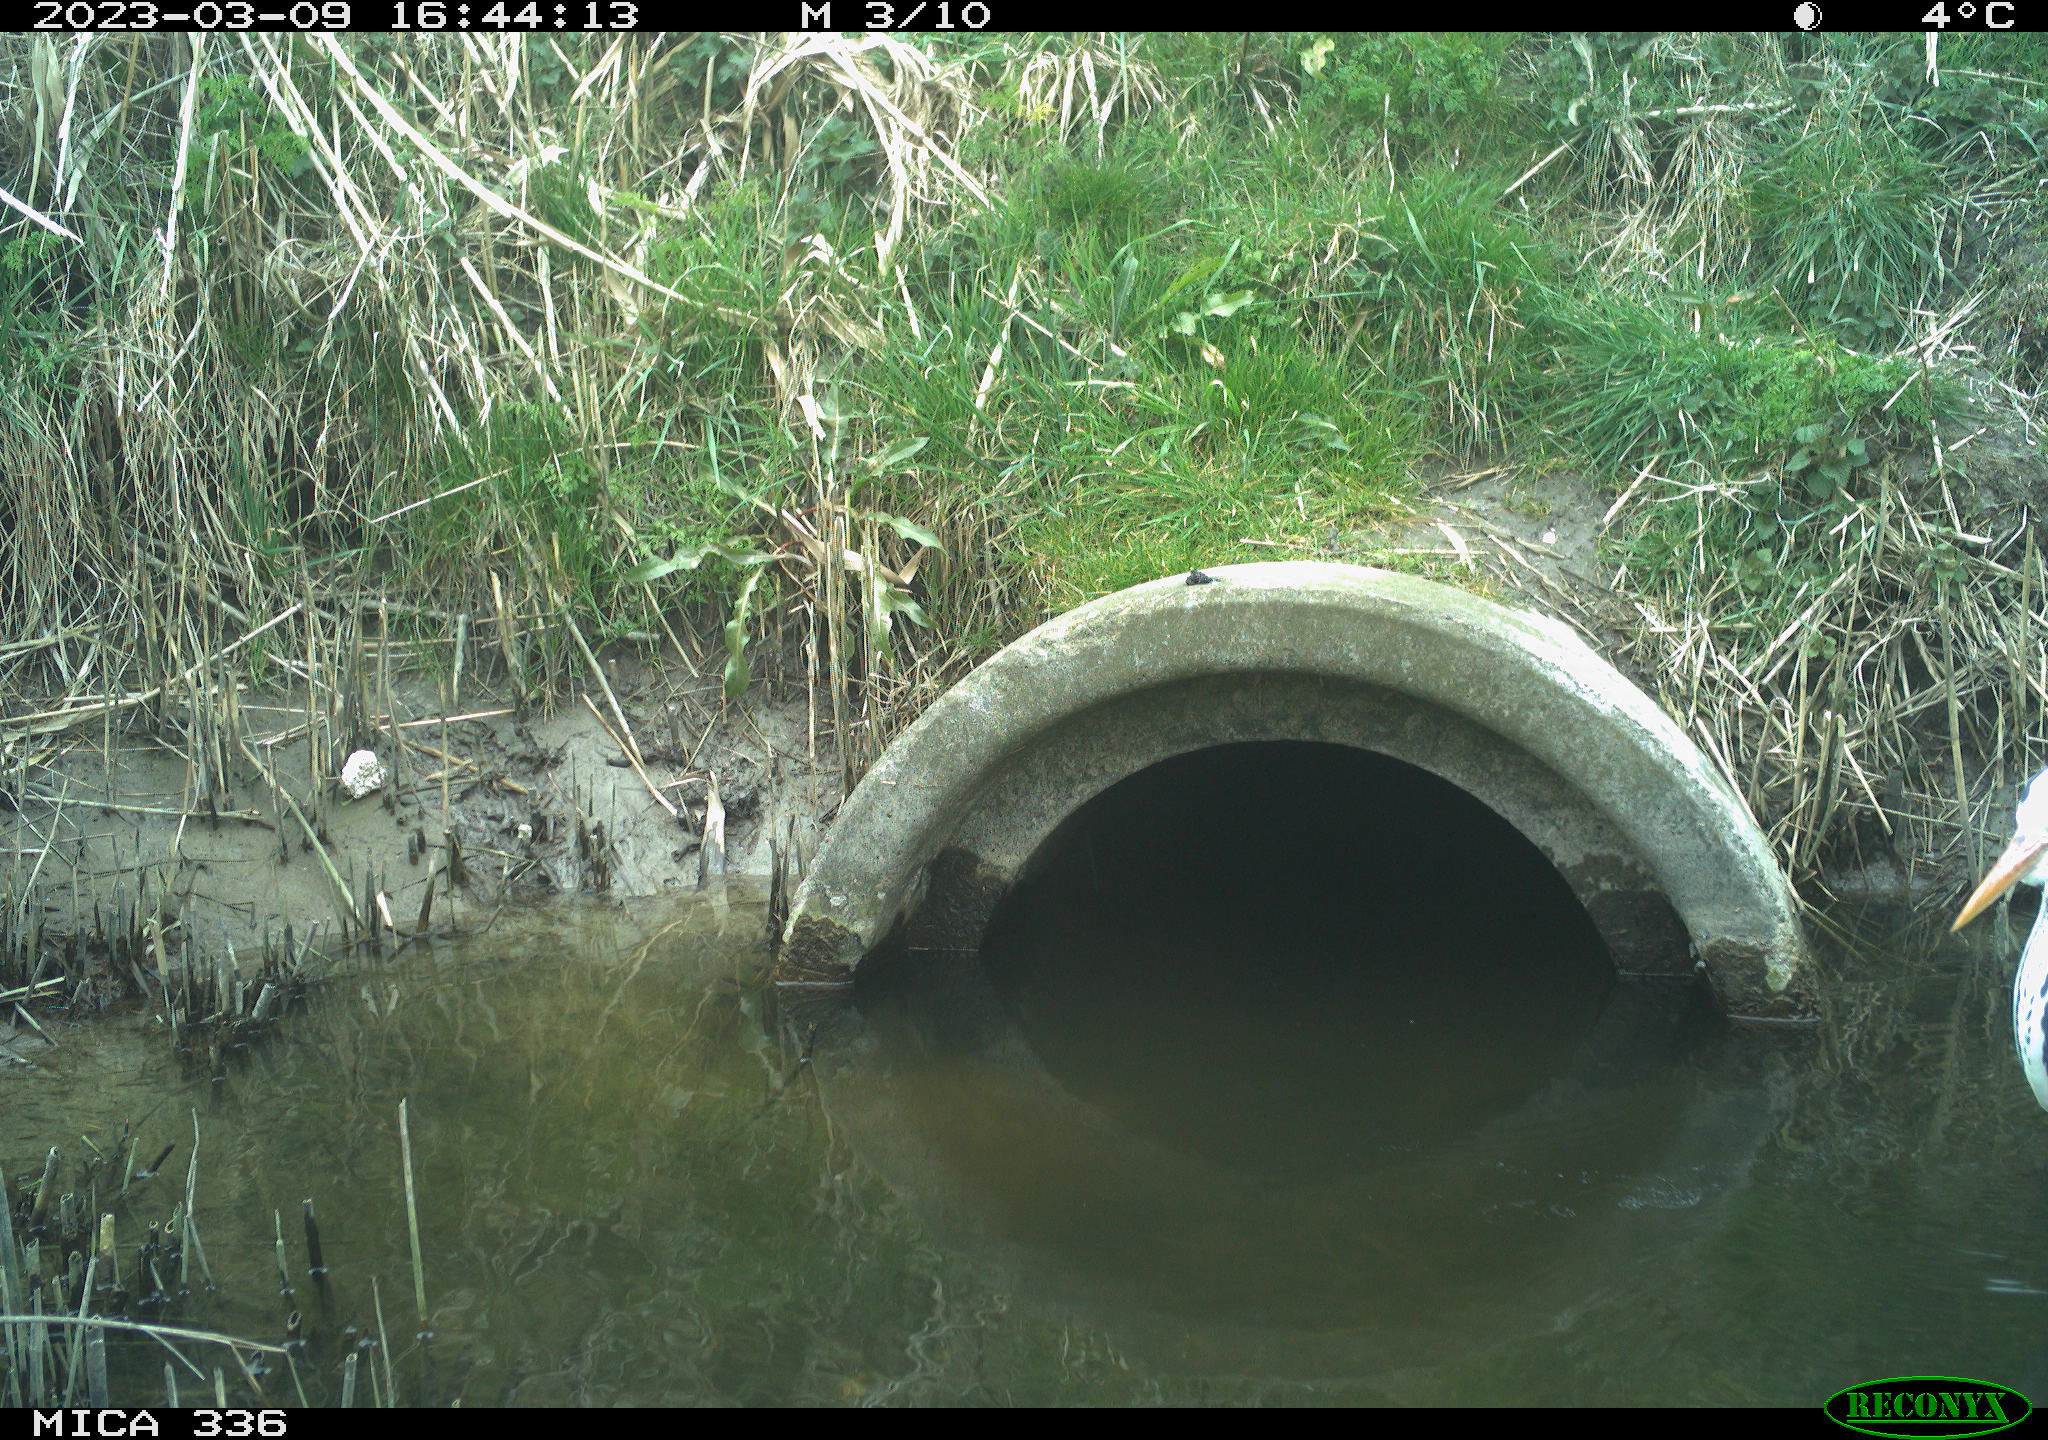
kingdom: Animalia
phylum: Chordata
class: Aves
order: Pelecaniformes
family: Ardeidae
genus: Ardea
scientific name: Ardea cinerea
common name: Grey heron
